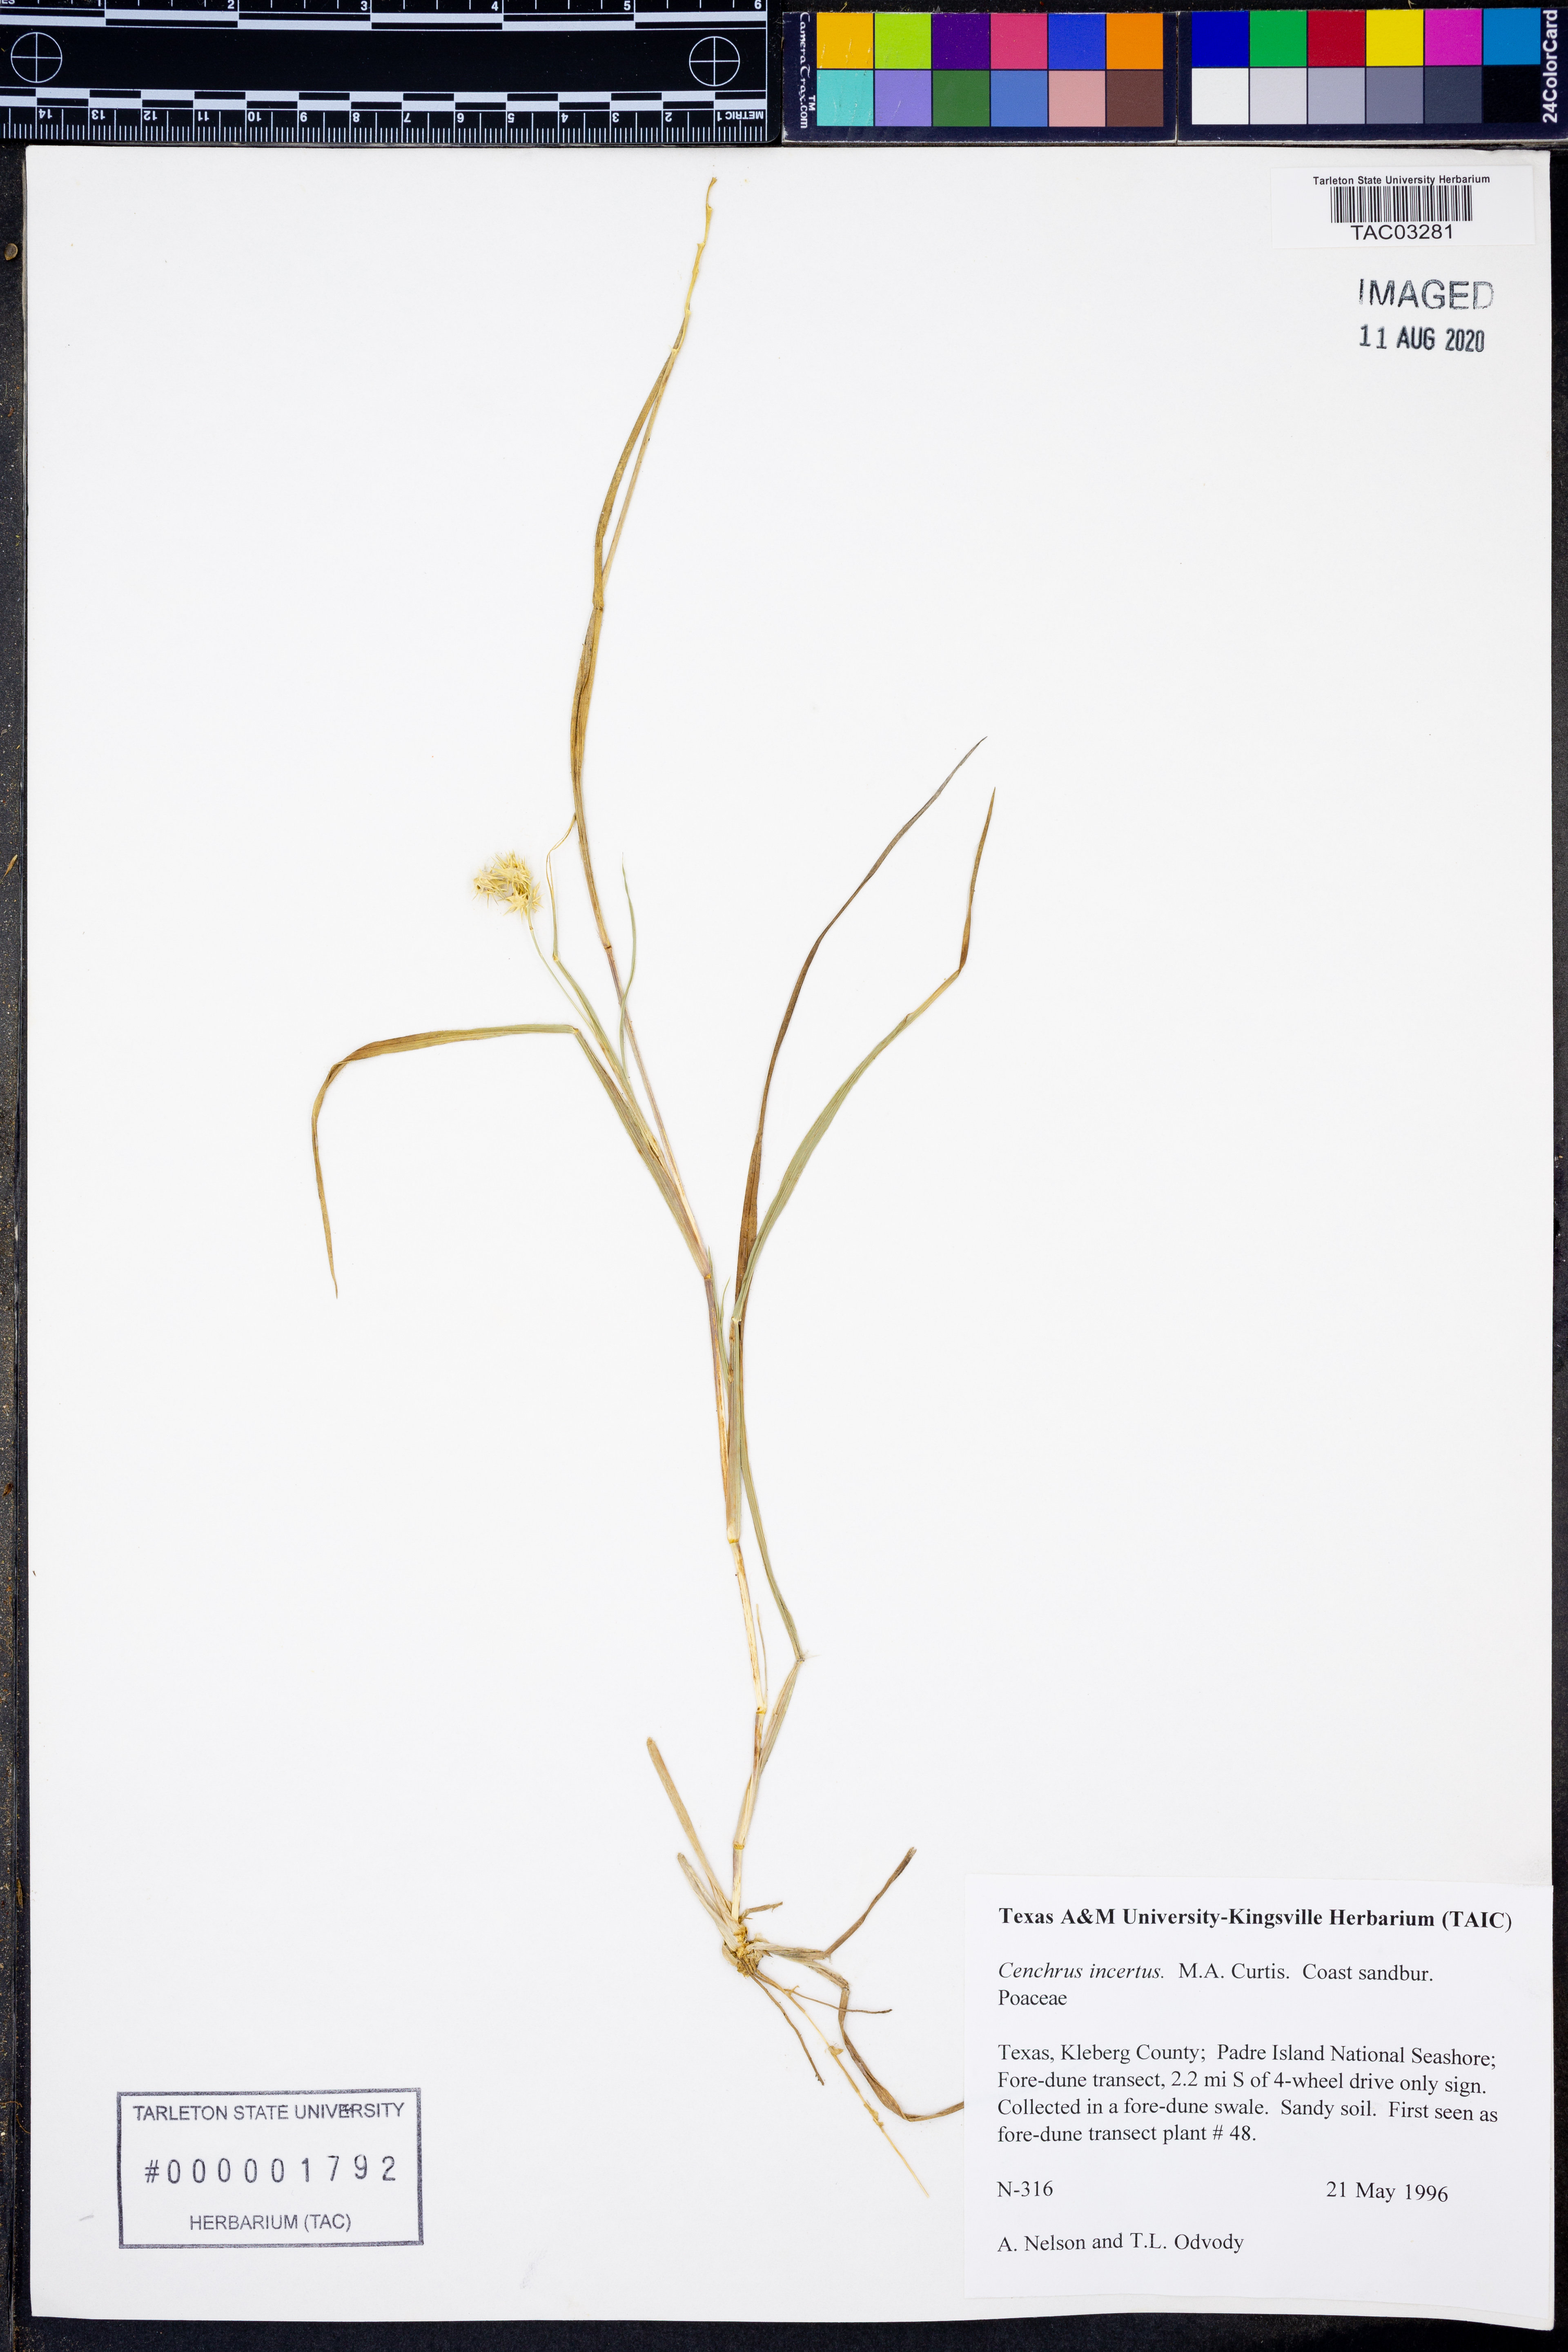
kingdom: Plantae
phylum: Tracheophyta
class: Liliopsida
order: Poales
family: Poaceae
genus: Cenchrus
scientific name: Cenchrus spinifex
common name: Coast sandbur
